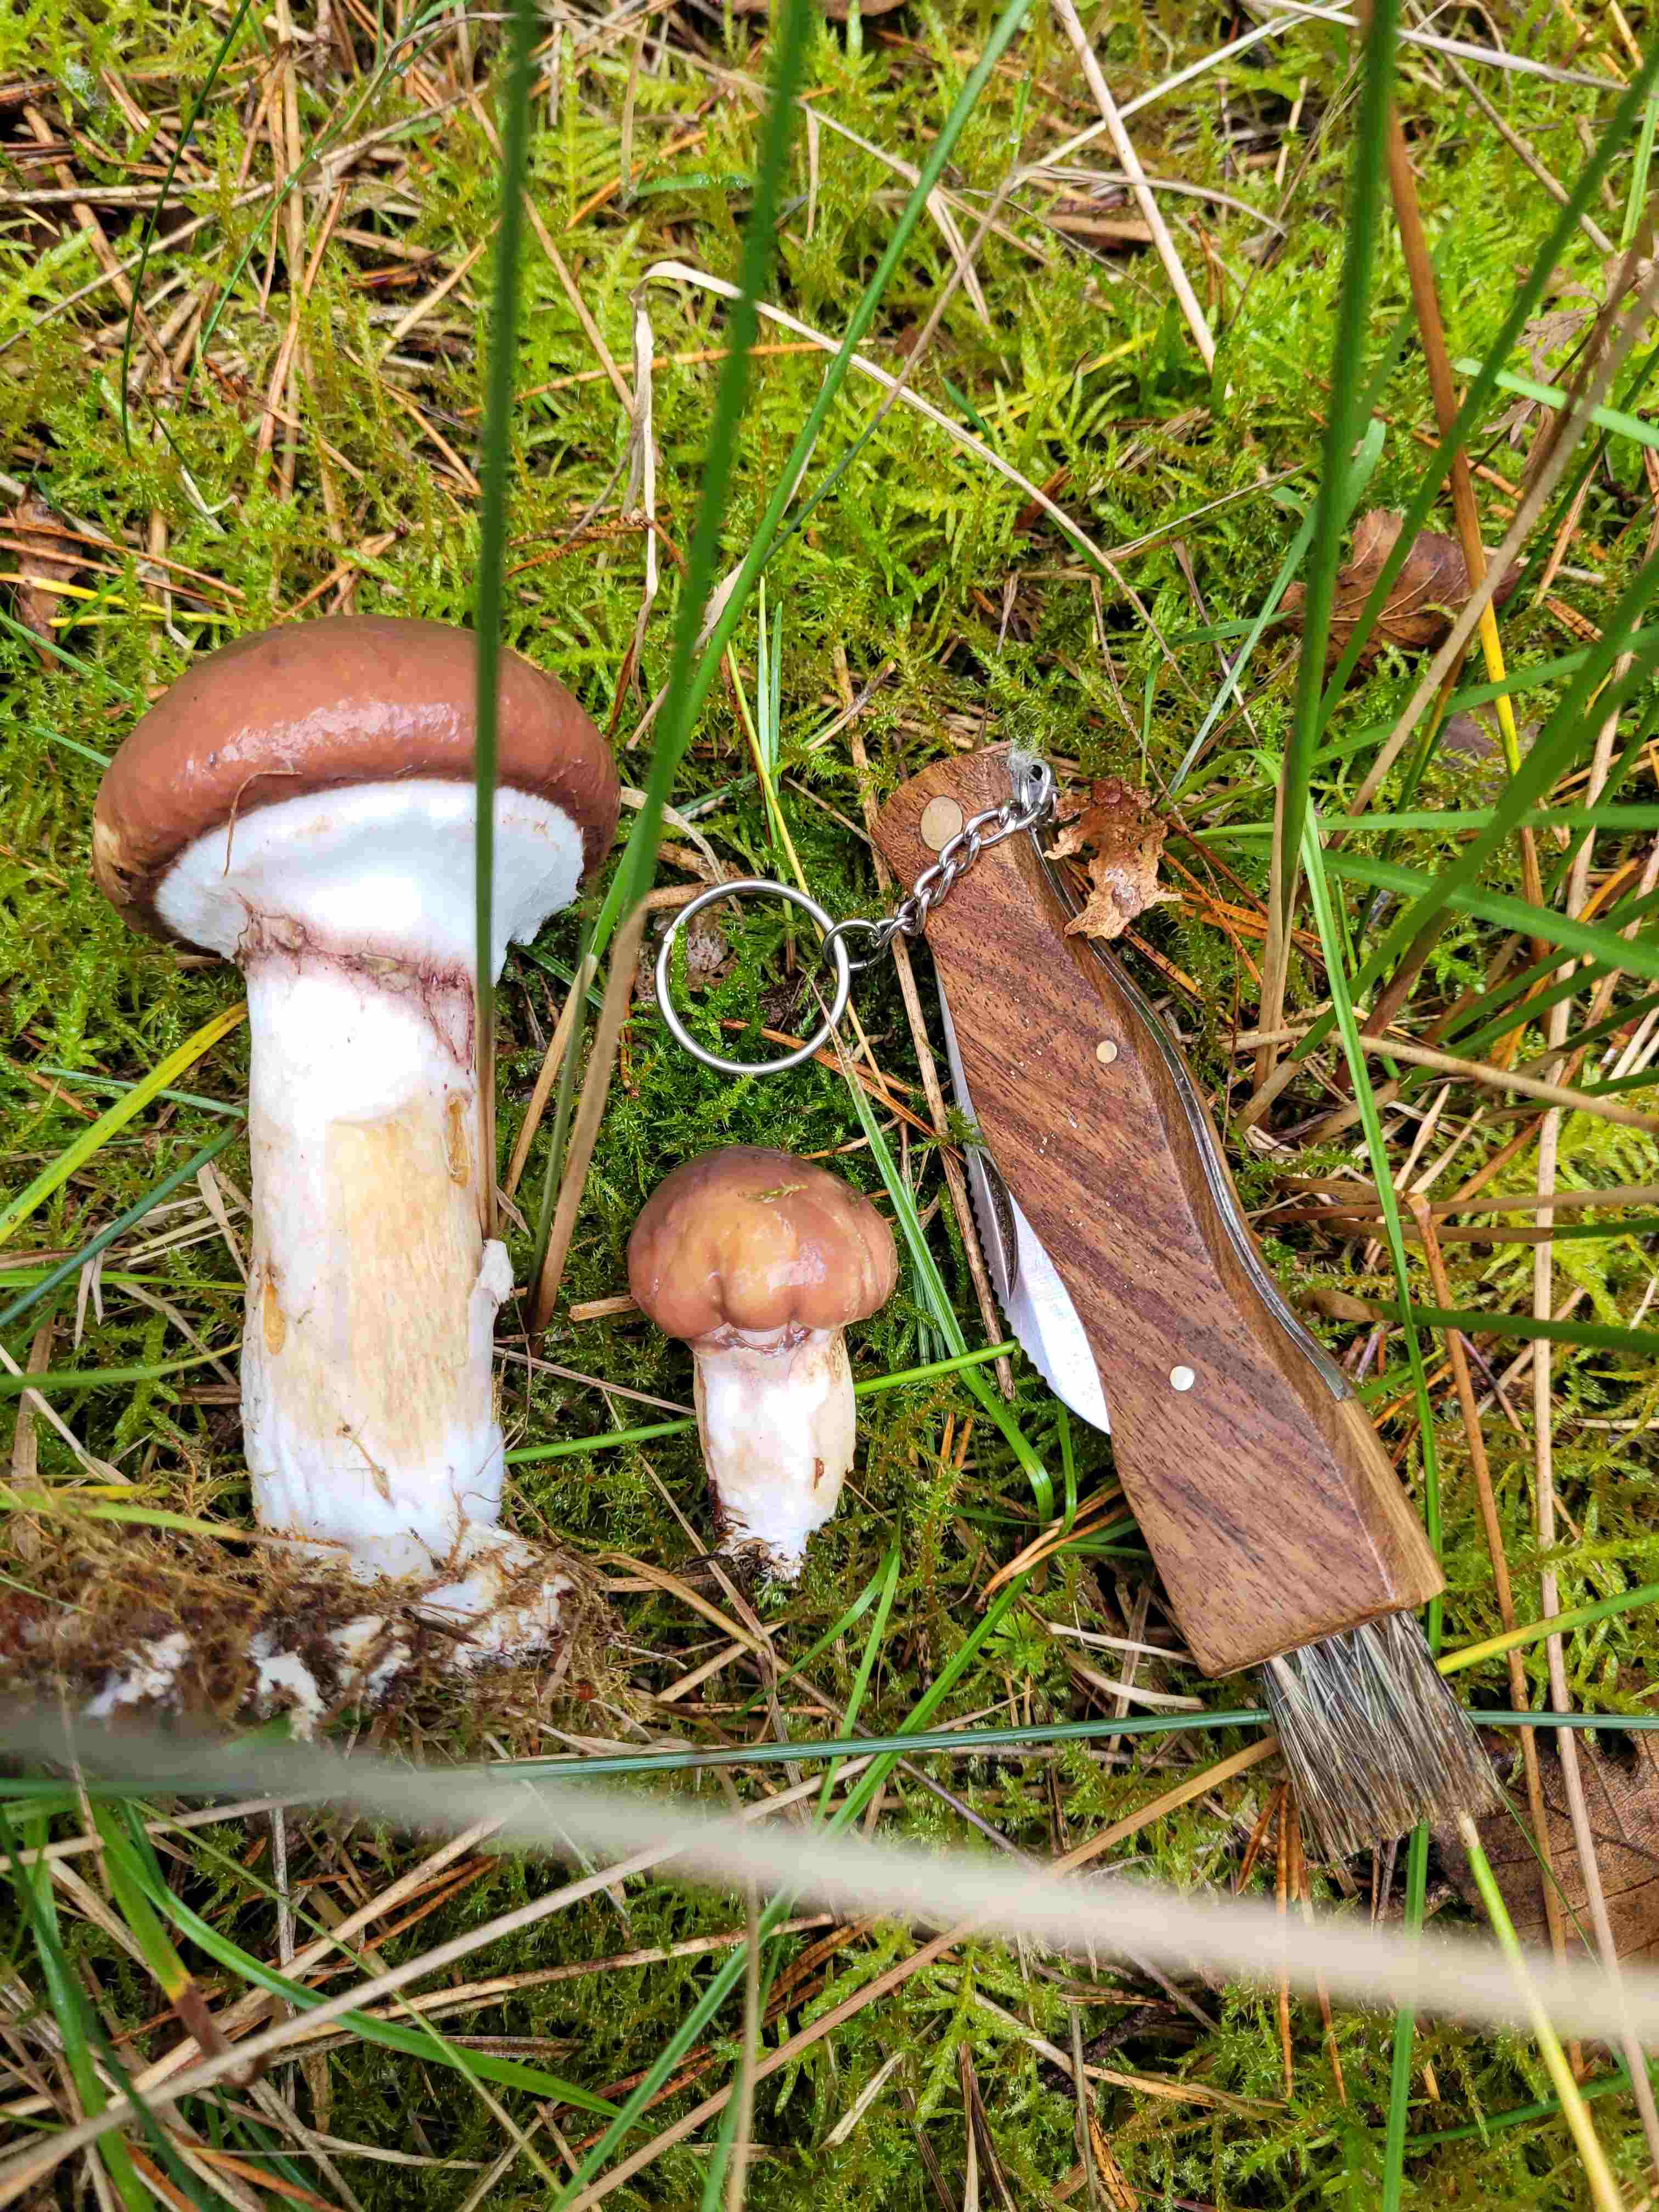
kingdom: Fungi
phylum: Basidiomycota
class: Agaricomycetes
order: Boletales
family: Suillaceae
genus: Suillus
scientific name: Suillus luteus
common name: brungul slimrørhat
